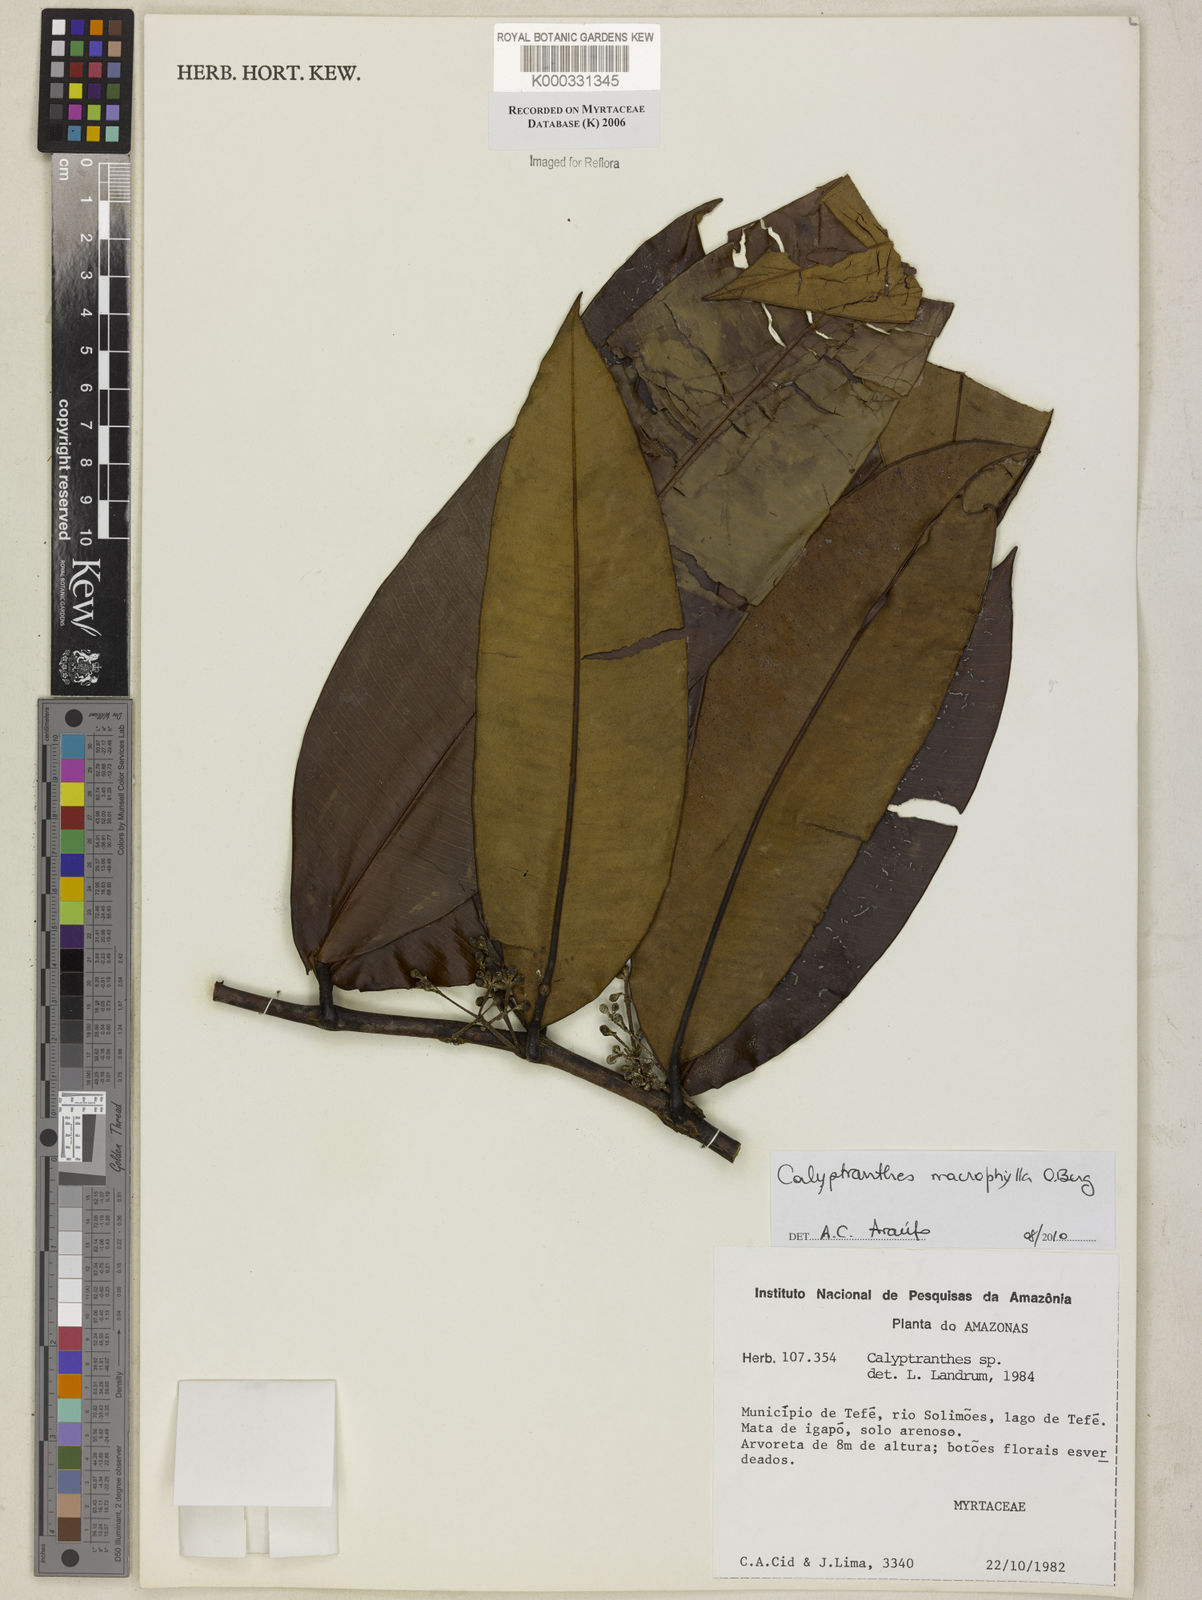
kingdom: Plantae
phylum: Tracheophyta
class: Magnoliopsida
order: Myrtales
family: Myrtaceae
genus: Calyptranthes
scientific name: Calyptranthes
